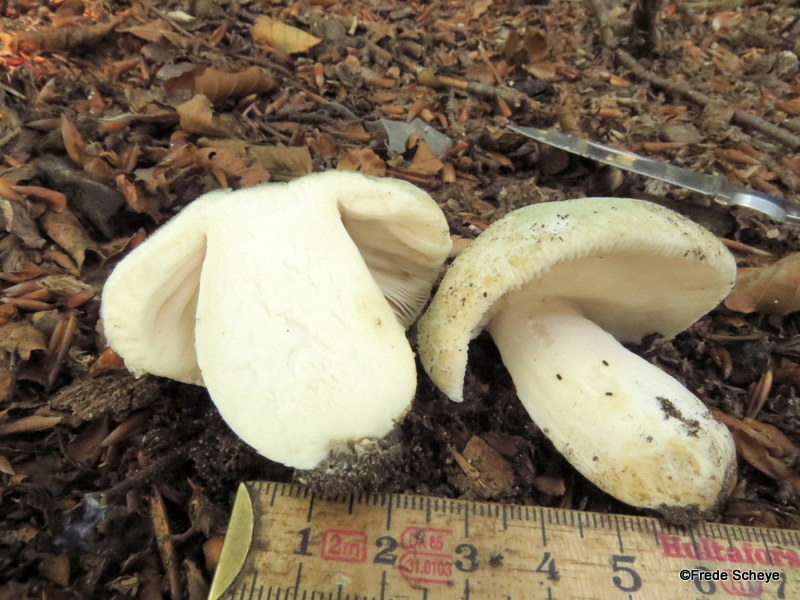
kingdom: Fungi
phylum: Basidiomycota
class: Agaricomycetes
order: Russulales
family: Russulaceae
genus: Russula
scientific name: Russula virescens
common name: spanskgrøn skørhat
